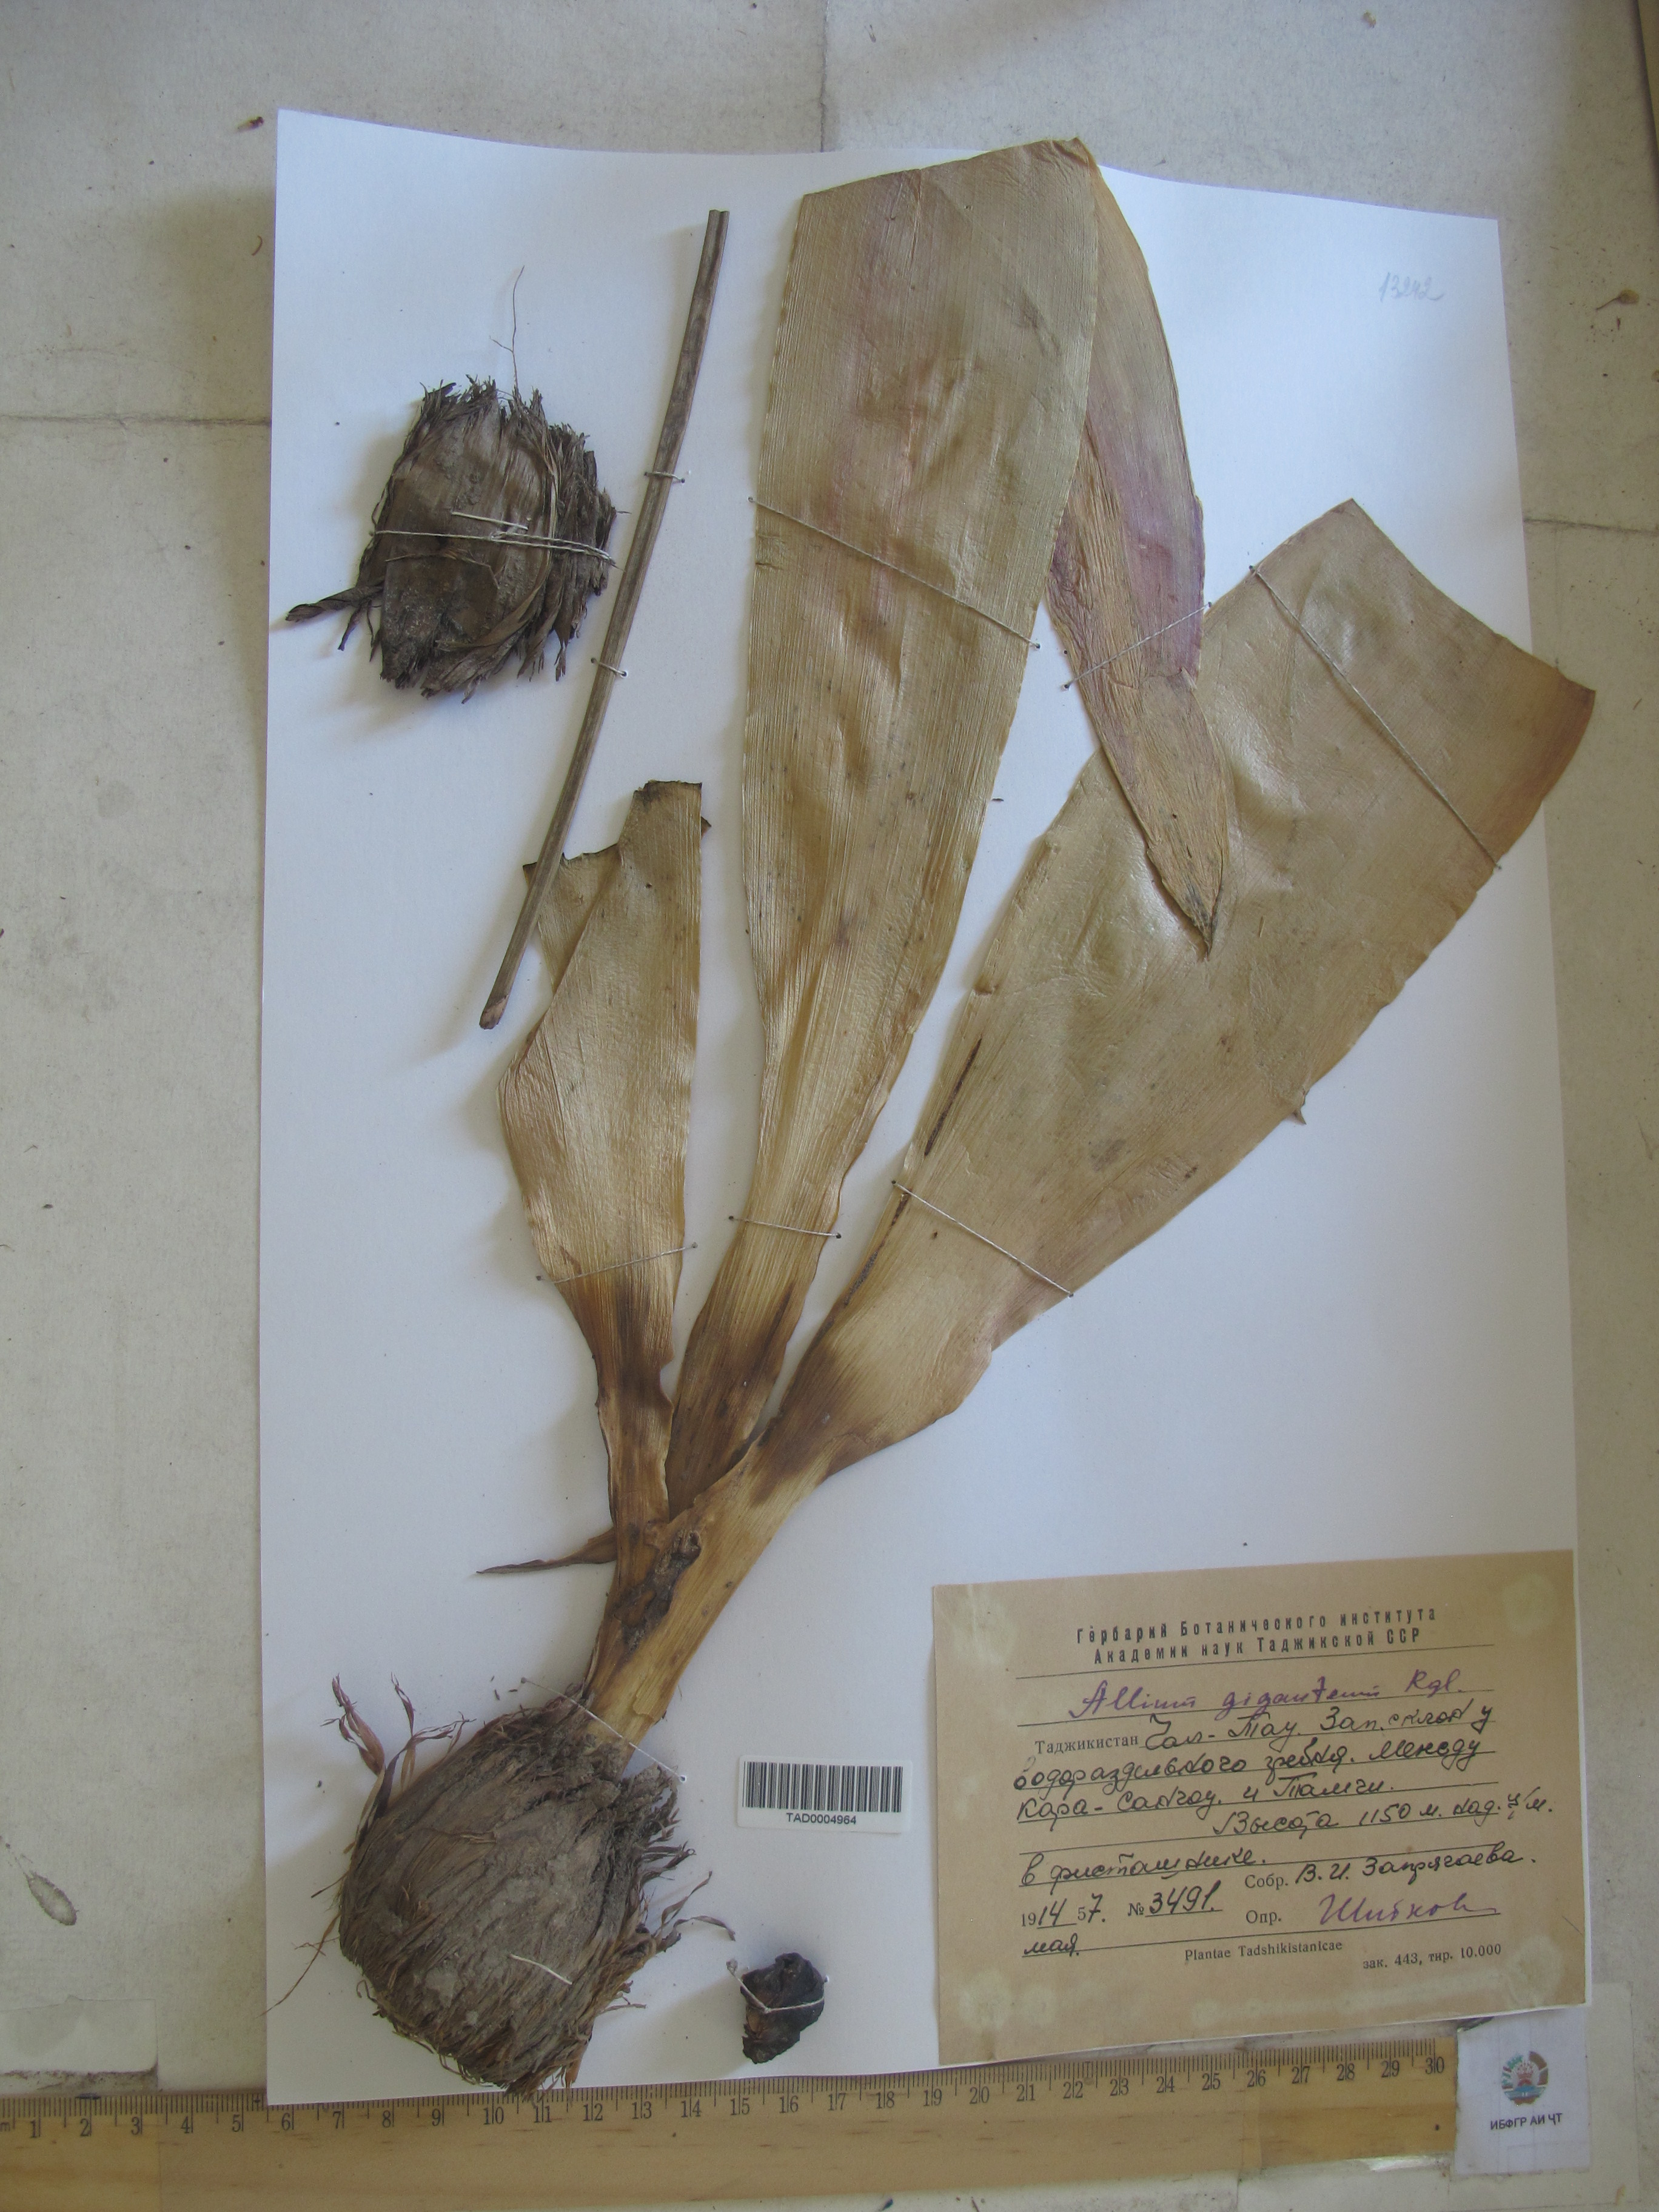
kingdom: Plantae
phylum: Tracheophyta
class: Liliopsida
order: Asparagales
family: Amaryllidaceae
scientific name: Amaryllidaceae
